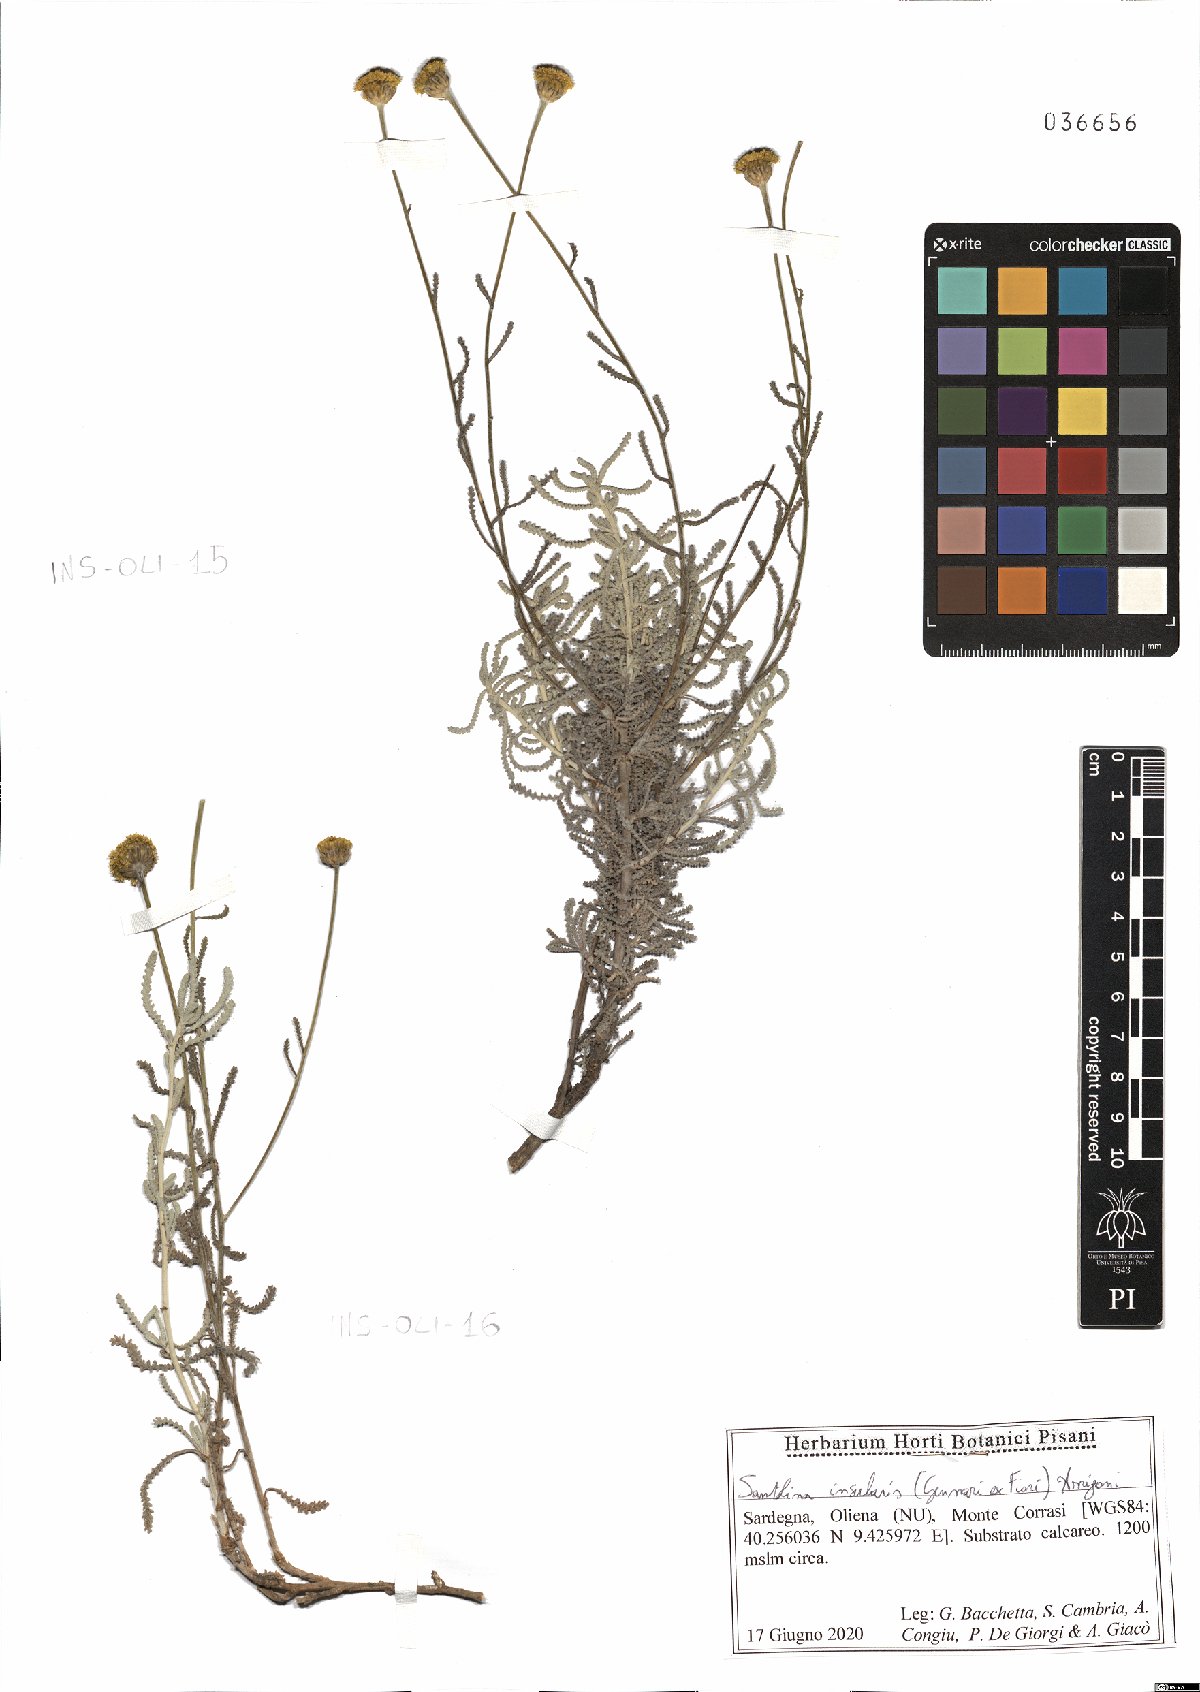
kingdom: Plantae
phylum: Tracheophyta
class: Magnoliopsida
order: Asterales
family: Asteraceae
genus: Santolina
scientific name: Santolina insularis
